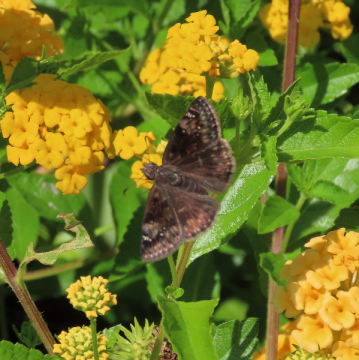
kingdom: Animalia
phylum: Arthropoda
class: Insecta
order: Lepidoptera
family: Hesperiidae
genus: Gesta
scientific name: Gesta
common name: Horace's Duskywing
